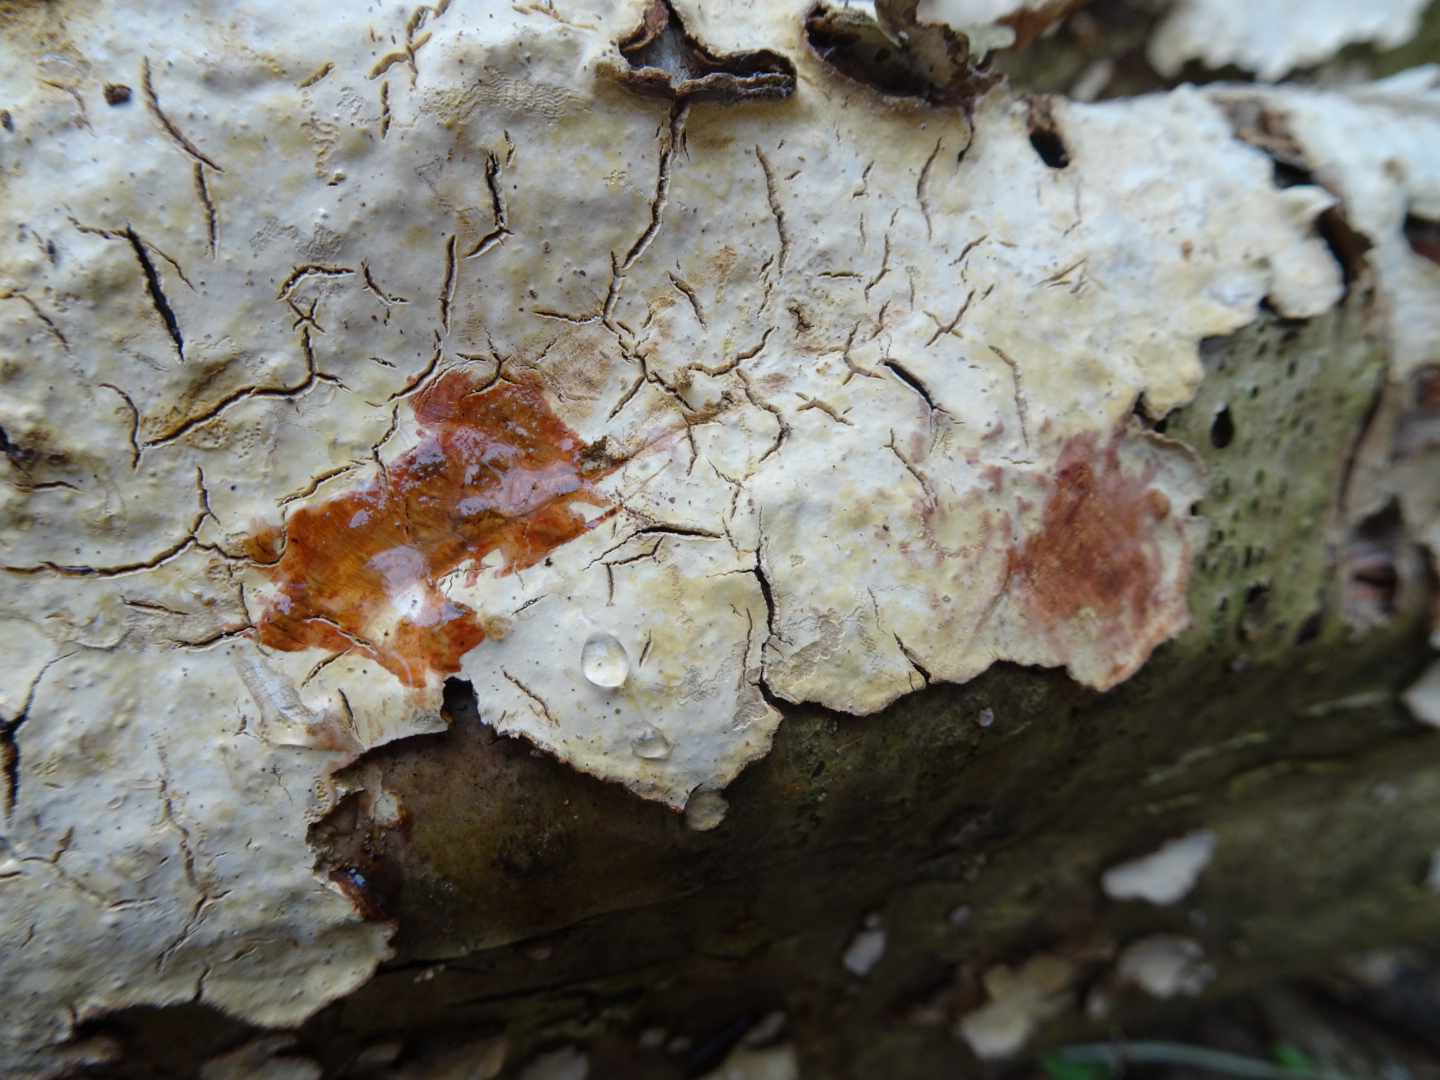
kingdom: Fungi
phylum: Basidiomycota
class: Agaricomycetes
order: Russulales
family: Stereaceae
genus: Stereum
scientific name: Stereum rugosum
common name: rynket lædersvamp
